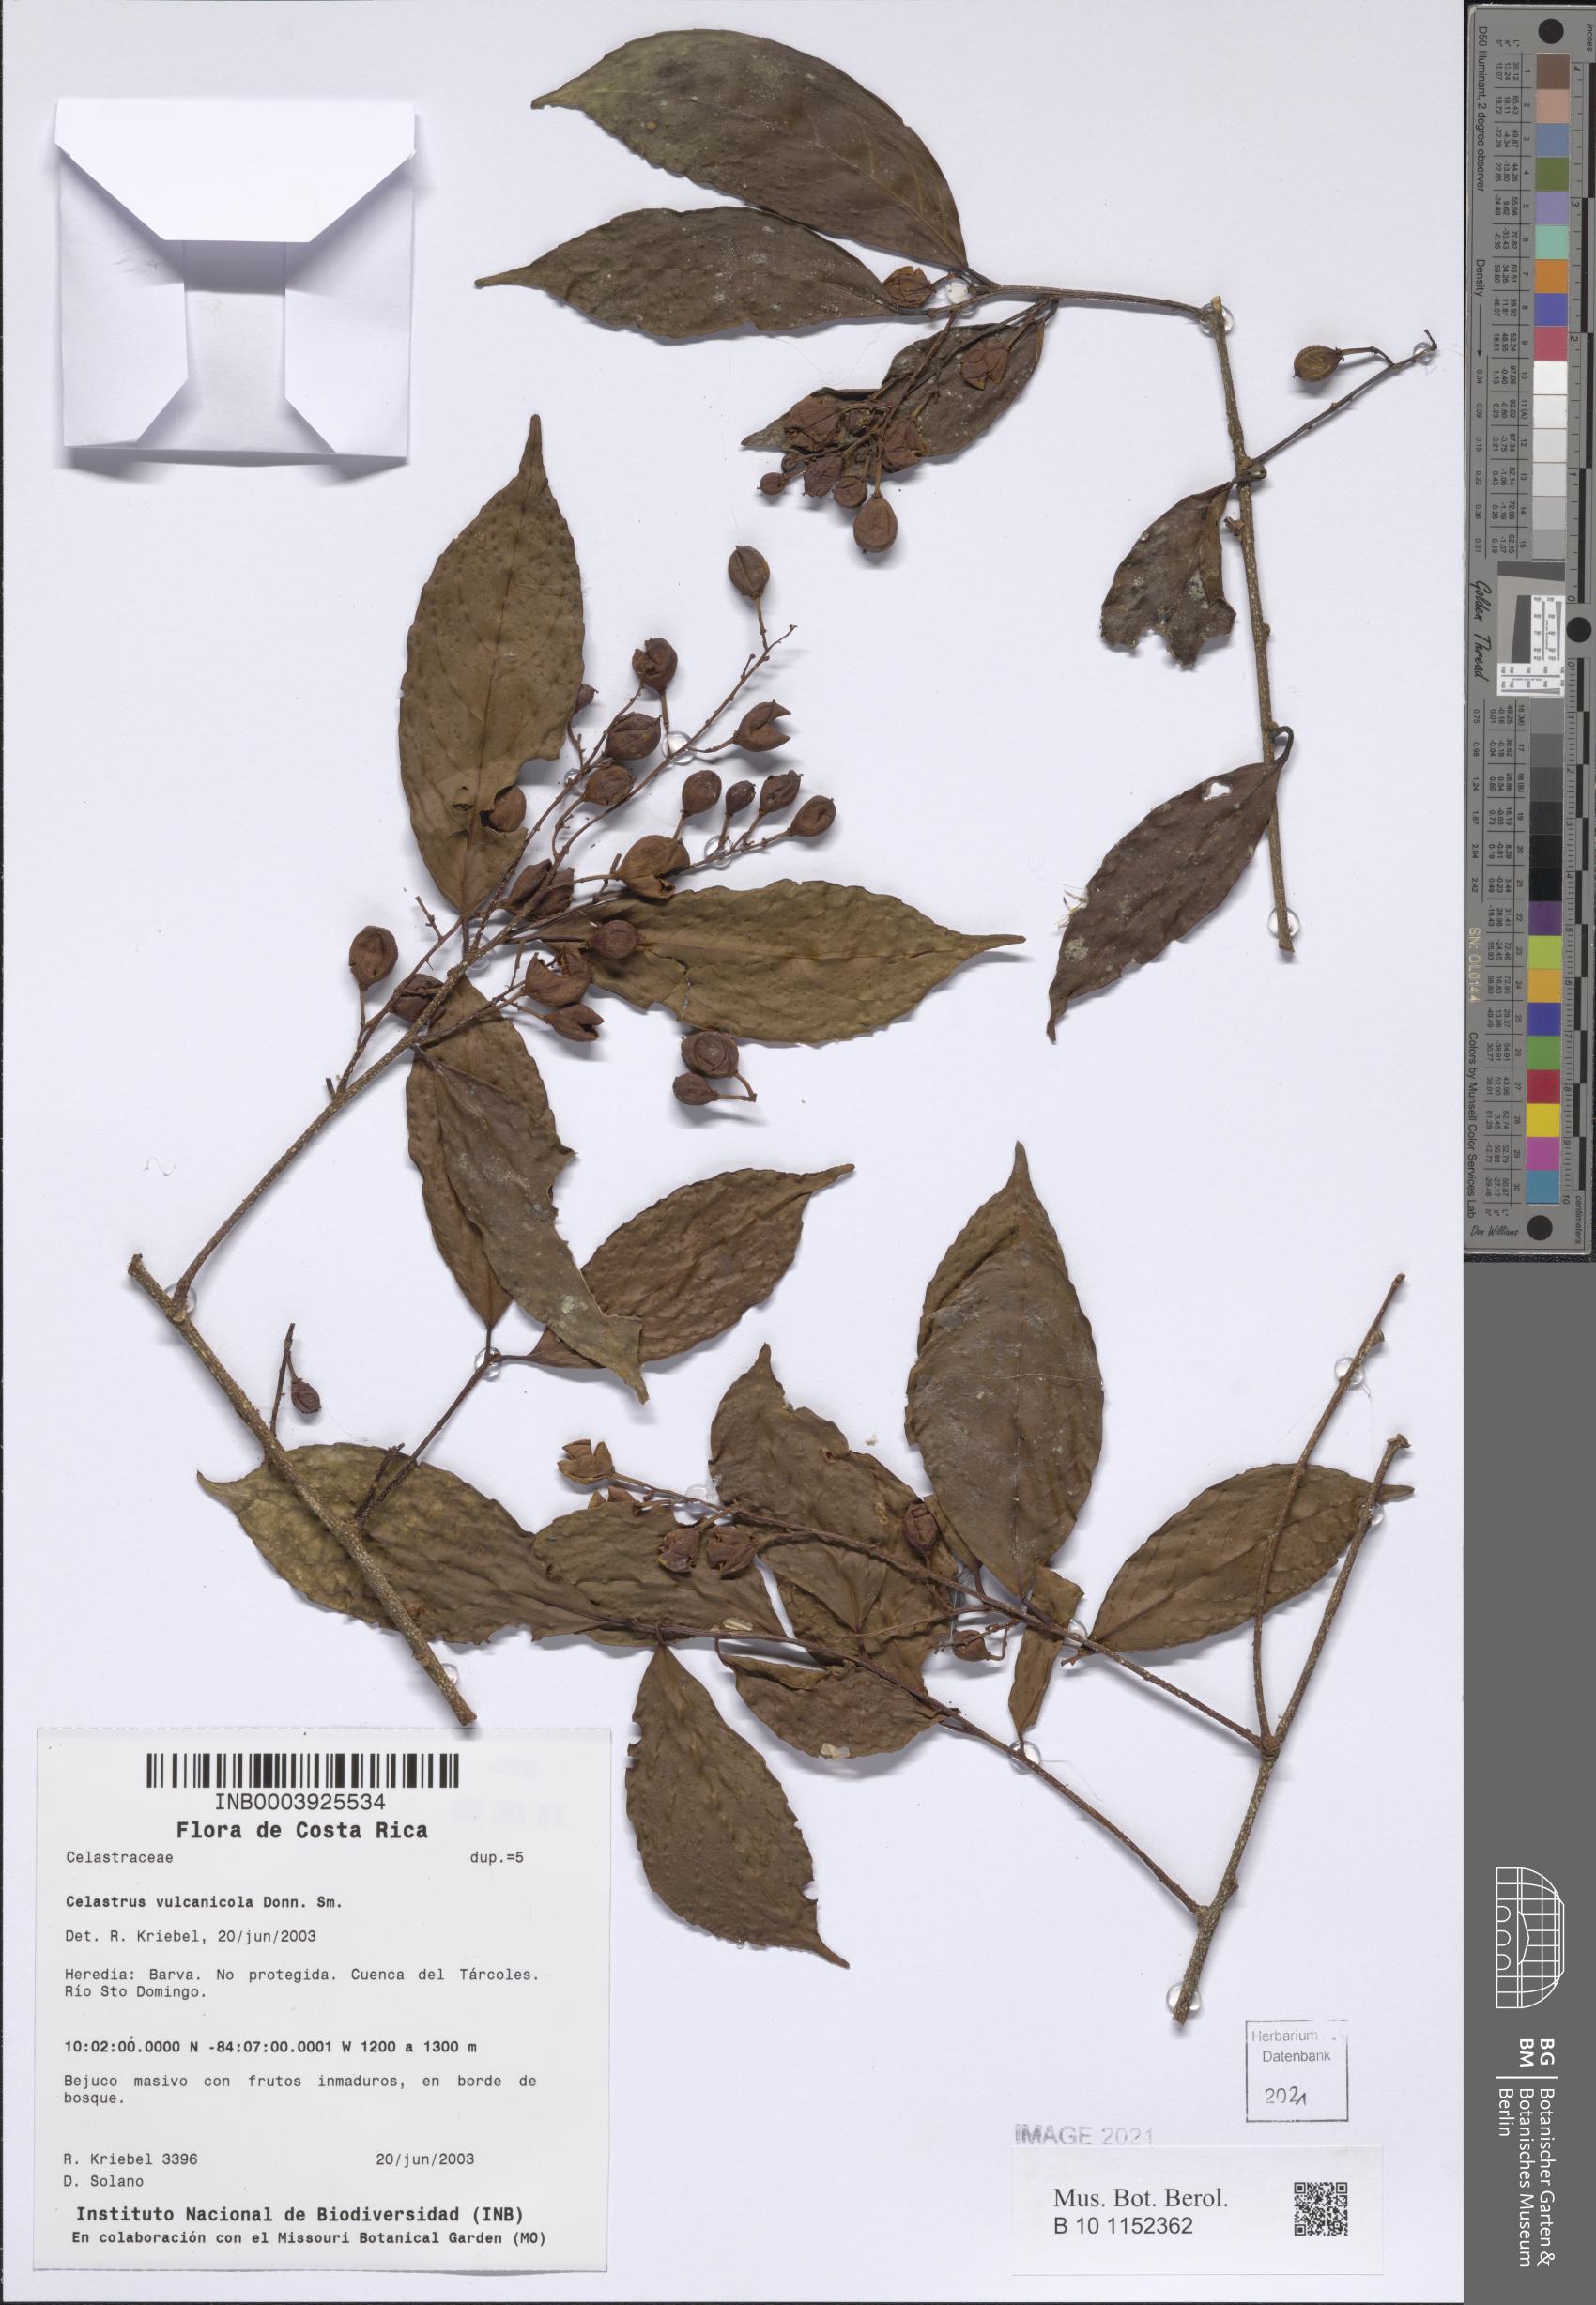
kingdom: Plantae
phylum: Tracheophyta
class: Magnoliopsida
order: Celastrales
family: Celastraceae
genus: Celastrus
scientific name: Celastrus vulcanicola
